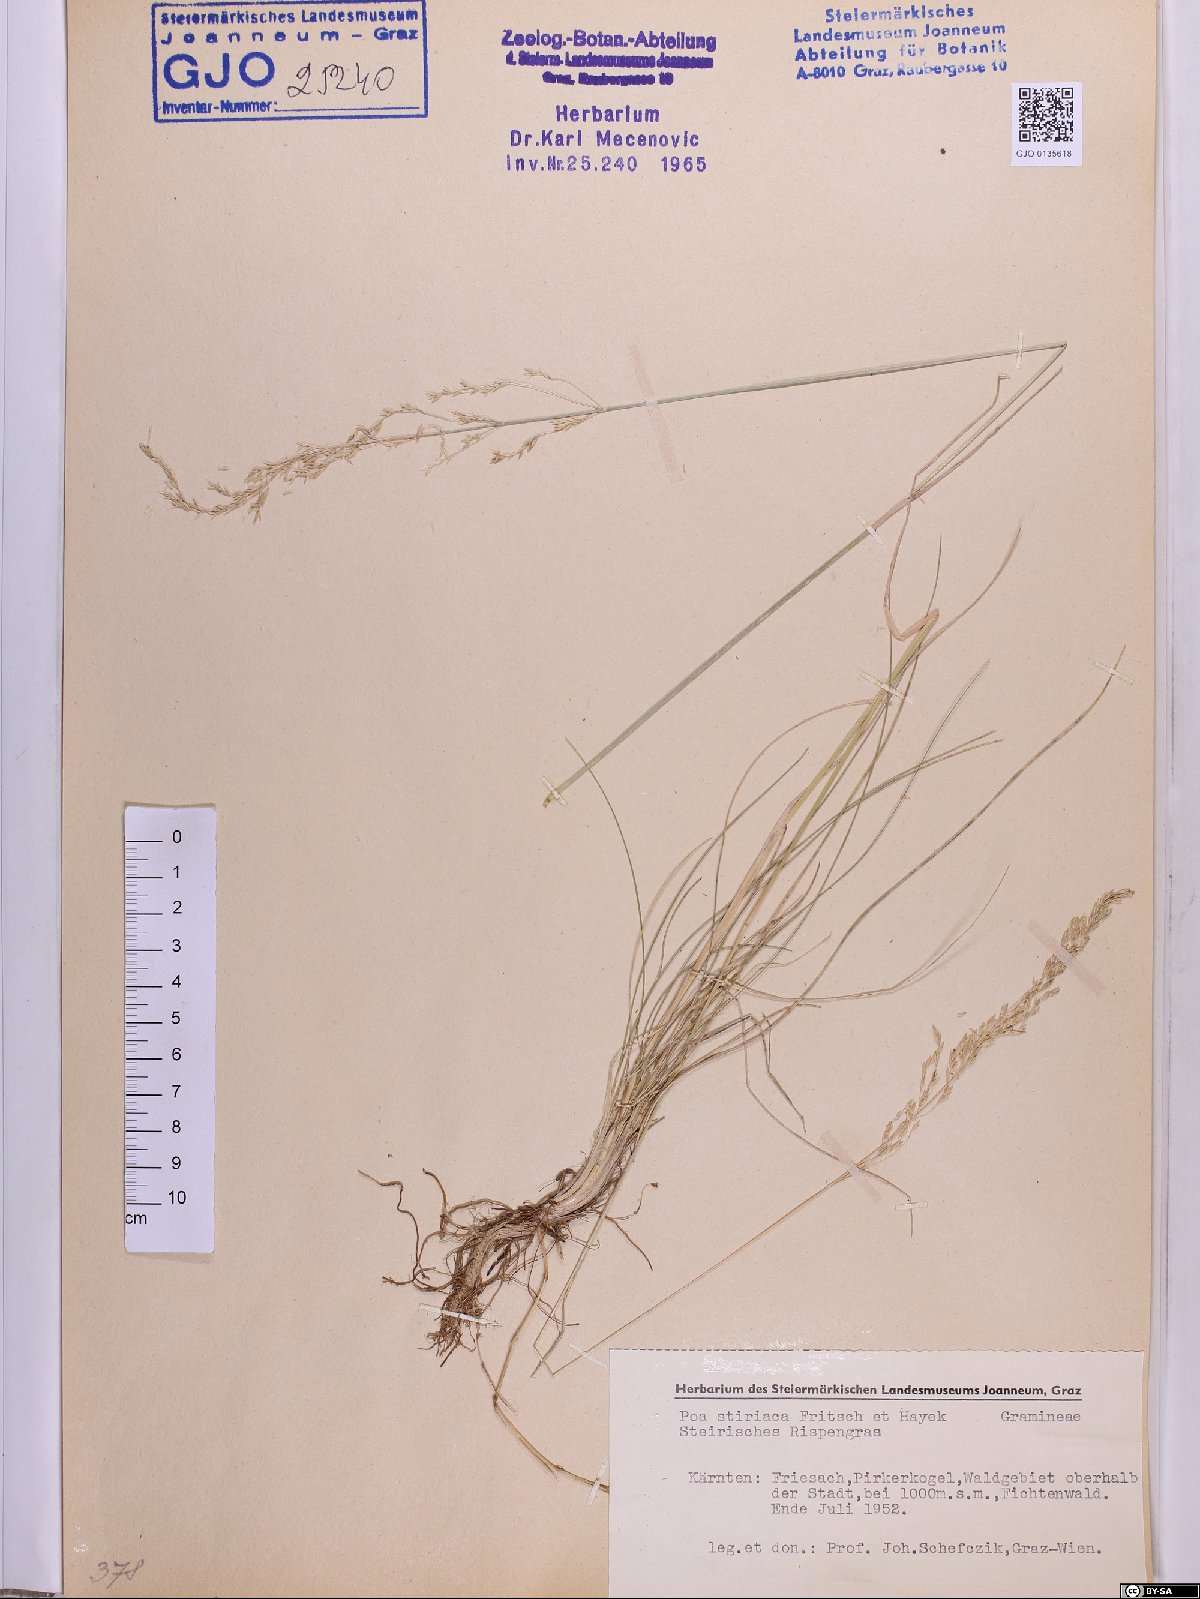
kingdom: Plantae
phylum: Tracheophyta
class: Liliopsida
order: Poales
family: Poaceae
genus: Poa
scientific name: Poa stiriaca
